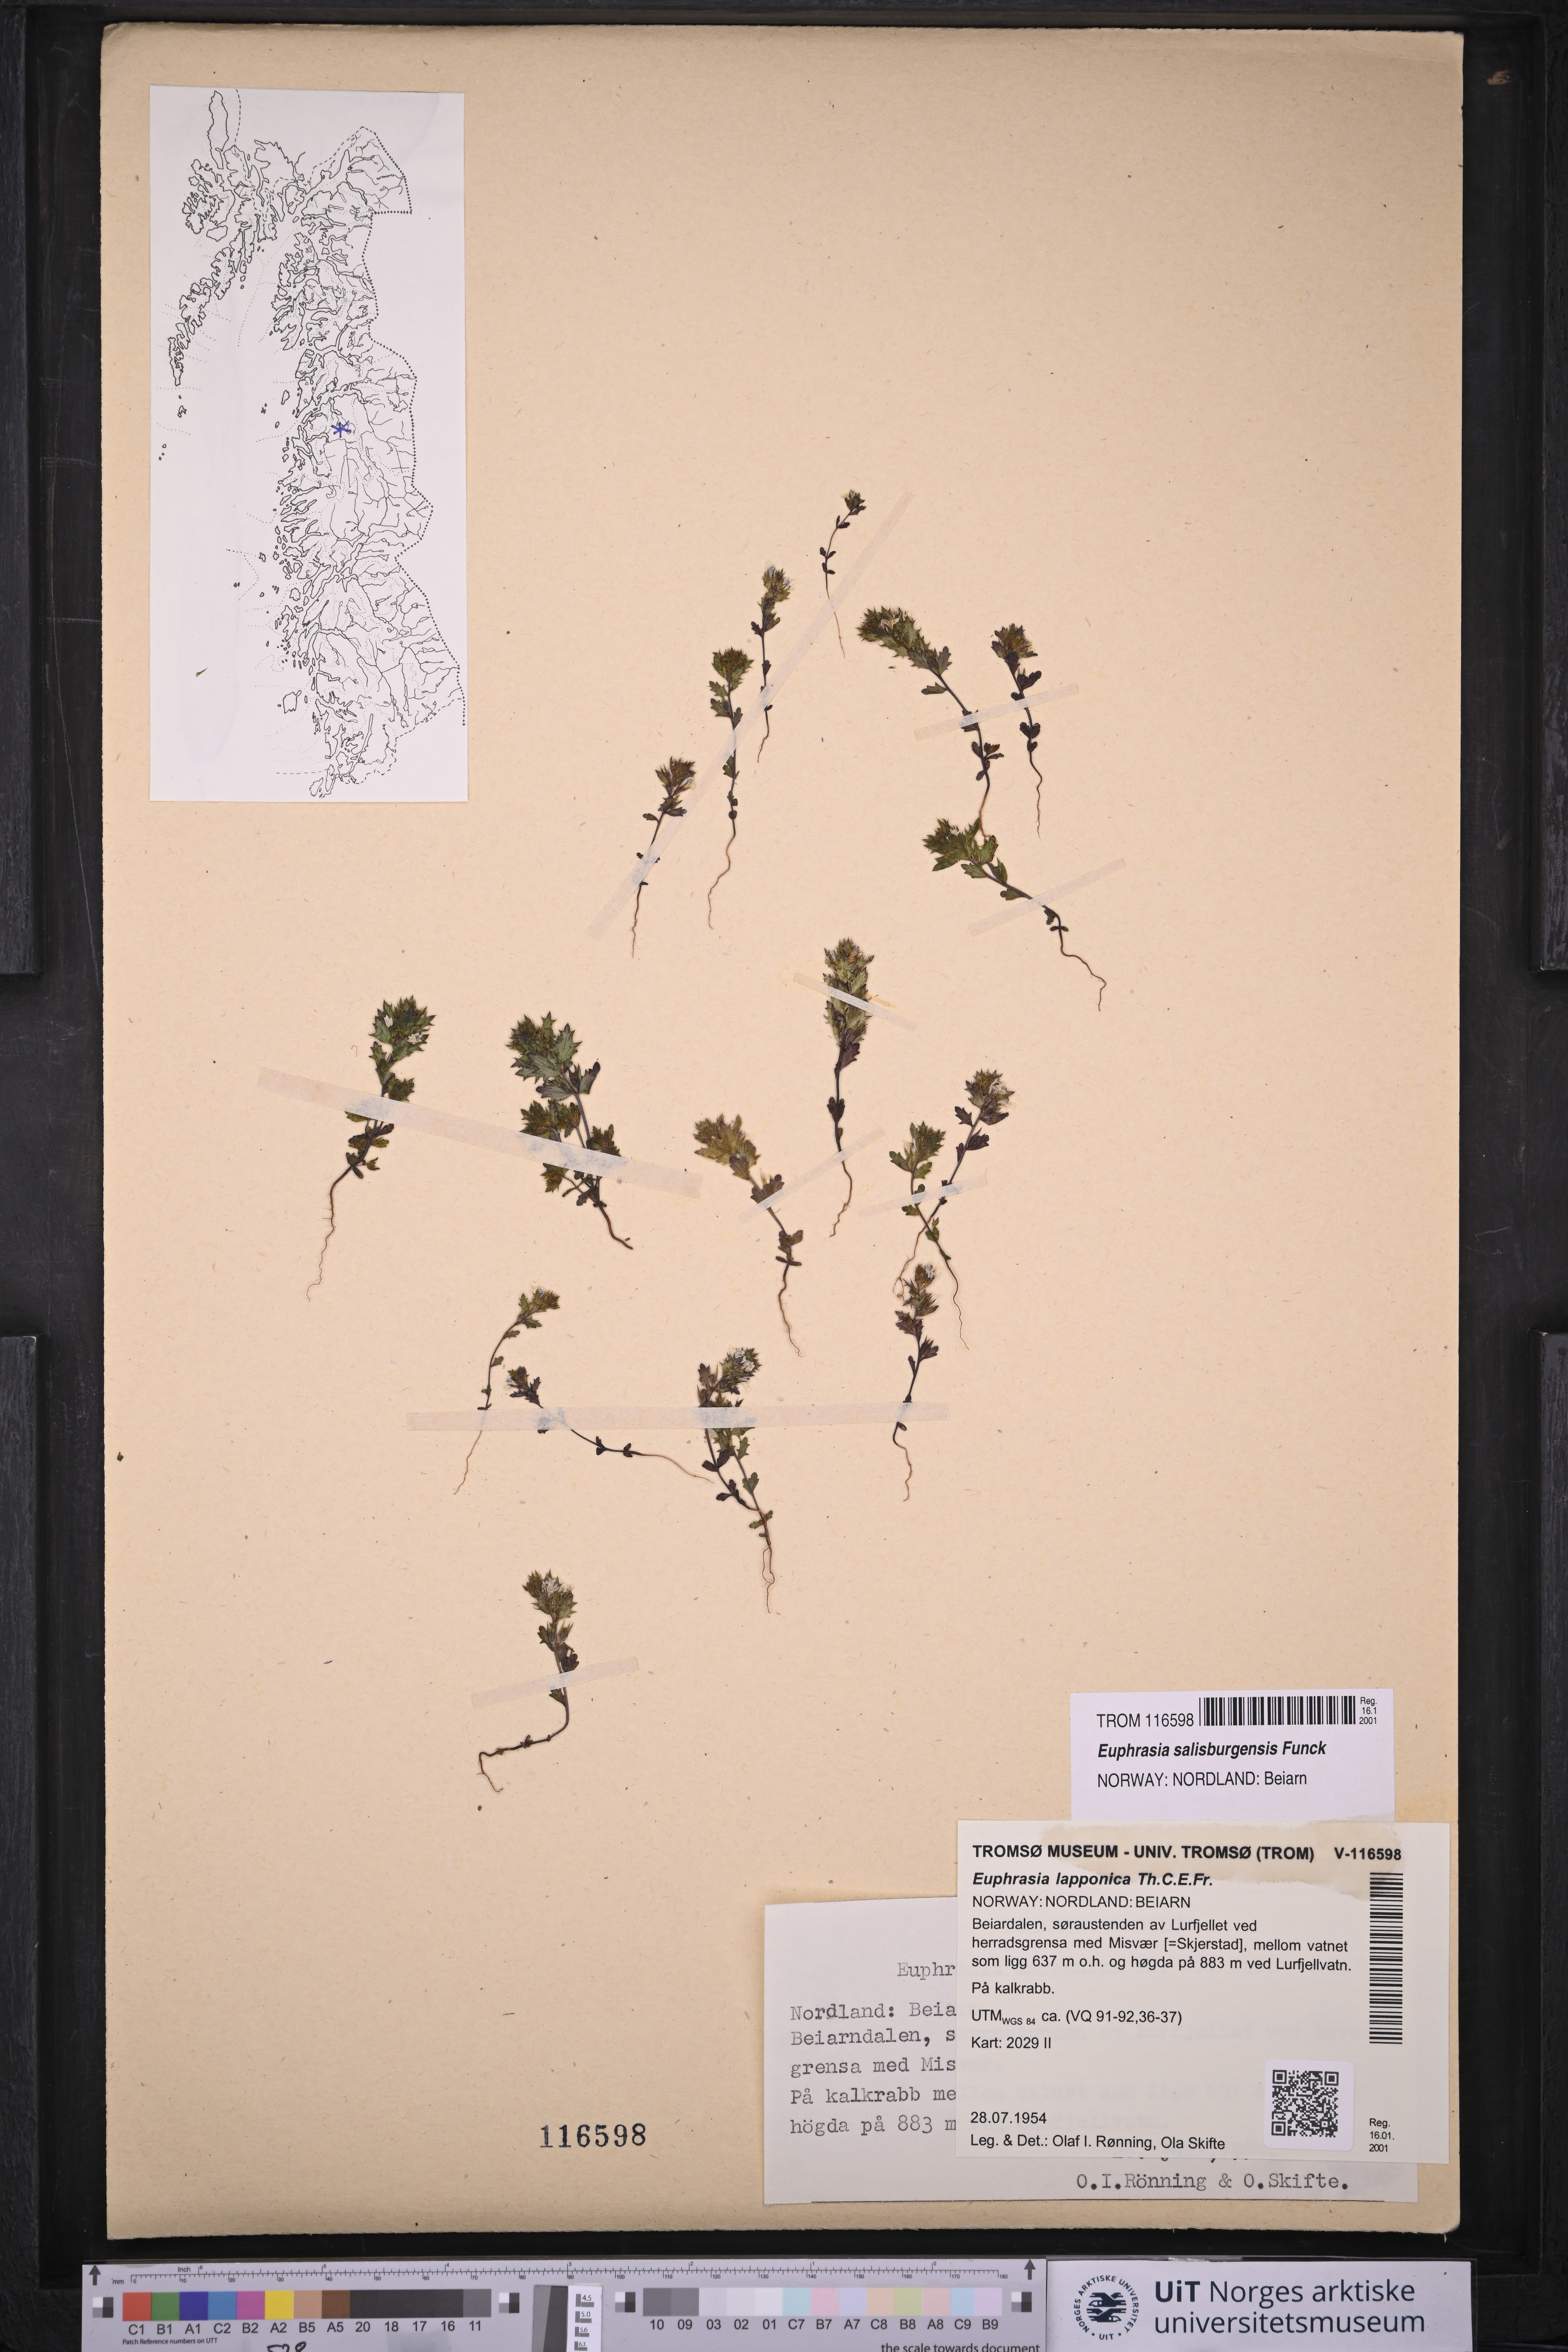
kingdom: Plantae
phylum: Tracheophyta
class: Magnoliopsida
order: Lamiales
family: Orobanchaceae
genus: Euphrasia
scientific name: Euphrasia salisburgensis
